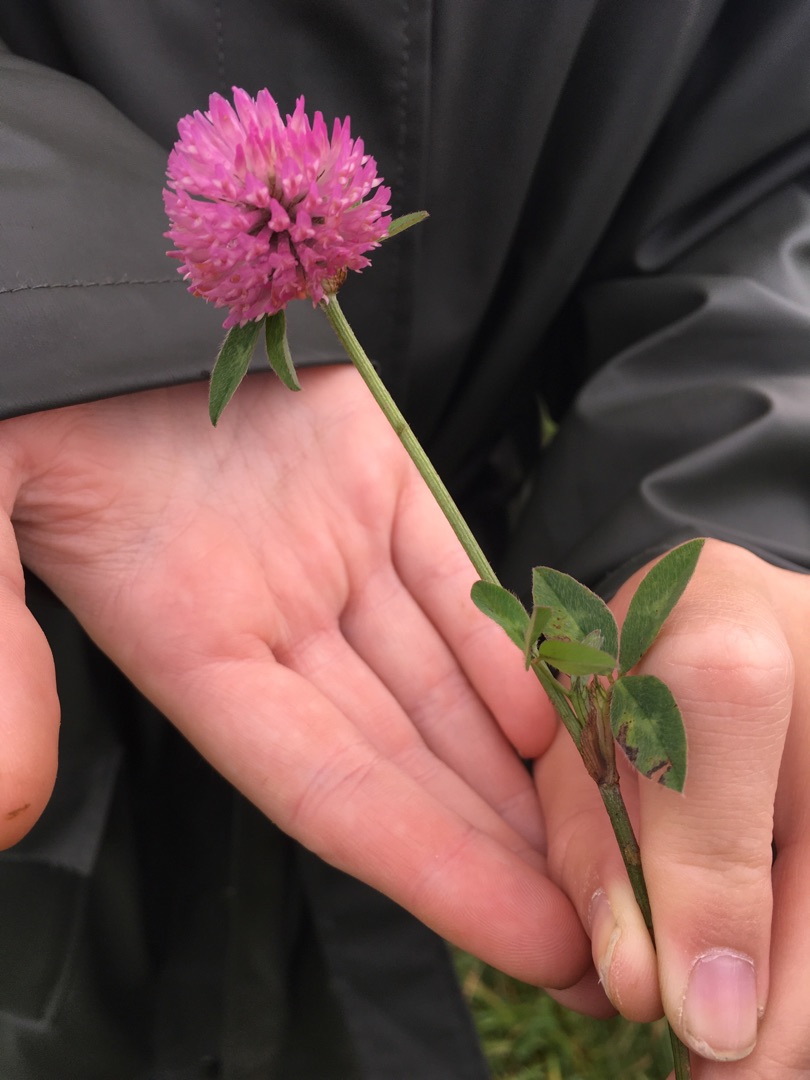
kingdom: Plantae
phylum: Tracheophyta
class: Magnoliopsida
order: Fabales
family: Fabaceae
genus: Trifolium
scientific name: Trifolium pratense
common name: Rød-kløver
